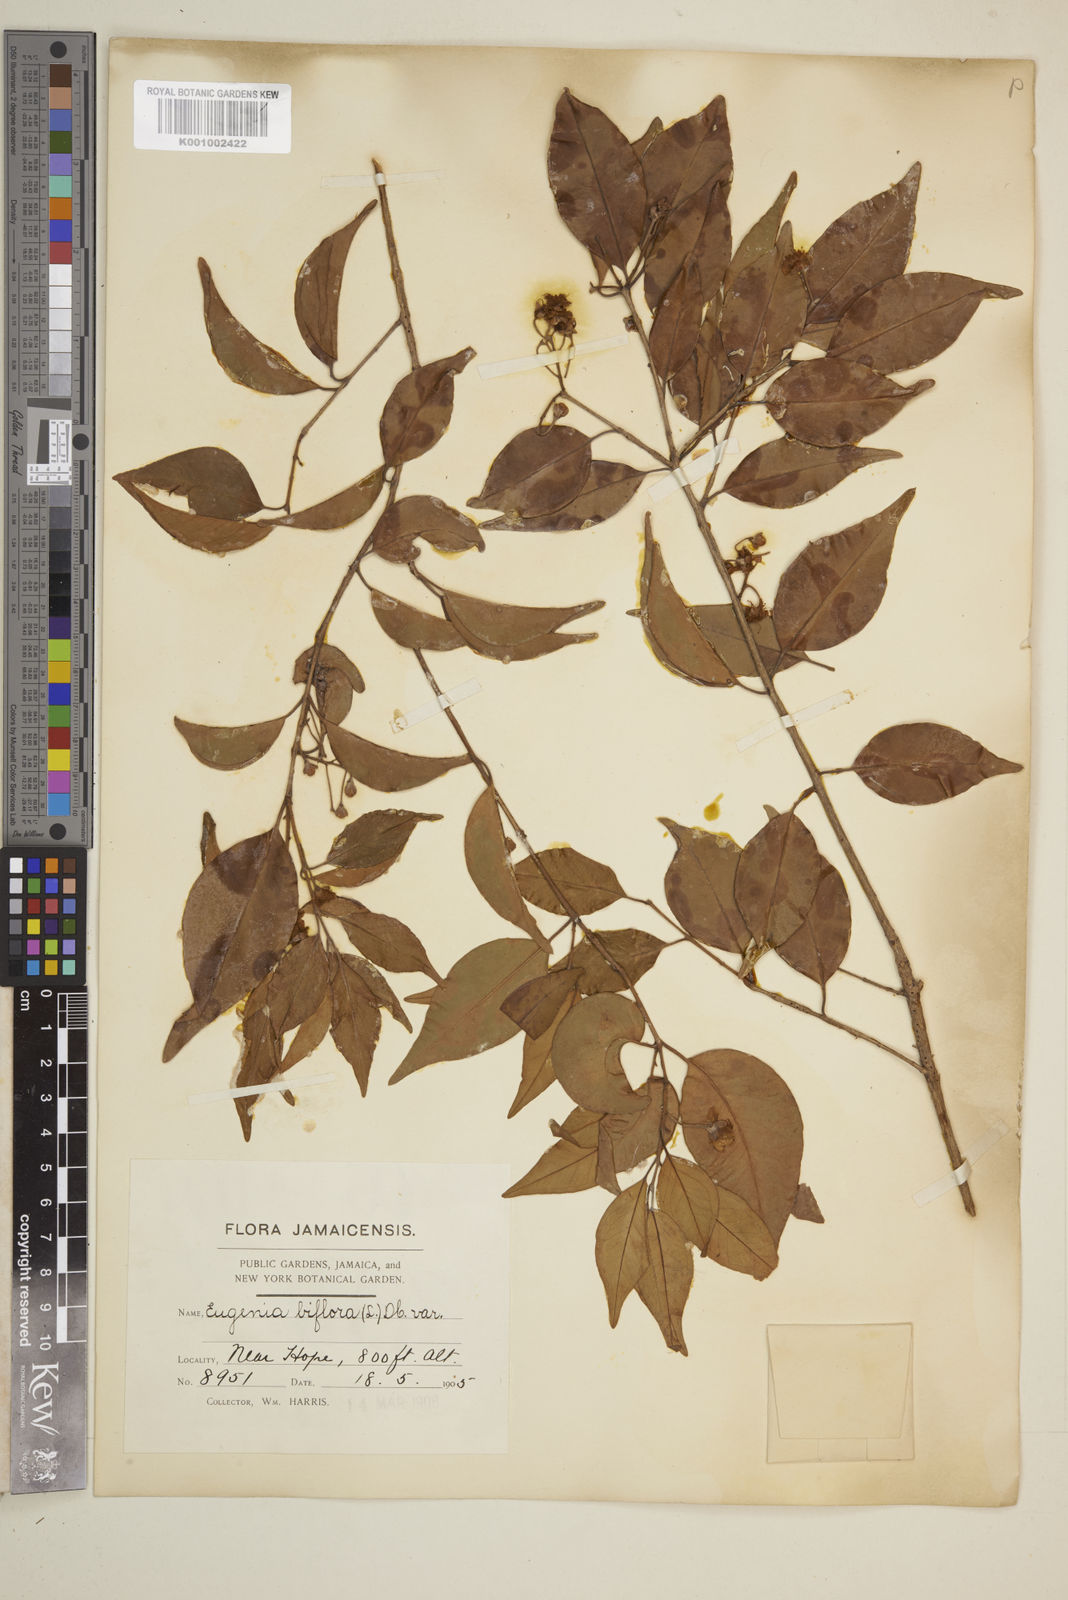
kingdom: Plantae
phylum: Tracheophyta
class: Magnoliopsida
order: Myrtales
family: Myrtaceae
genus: Eugenia
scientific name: Eugenia biflora
